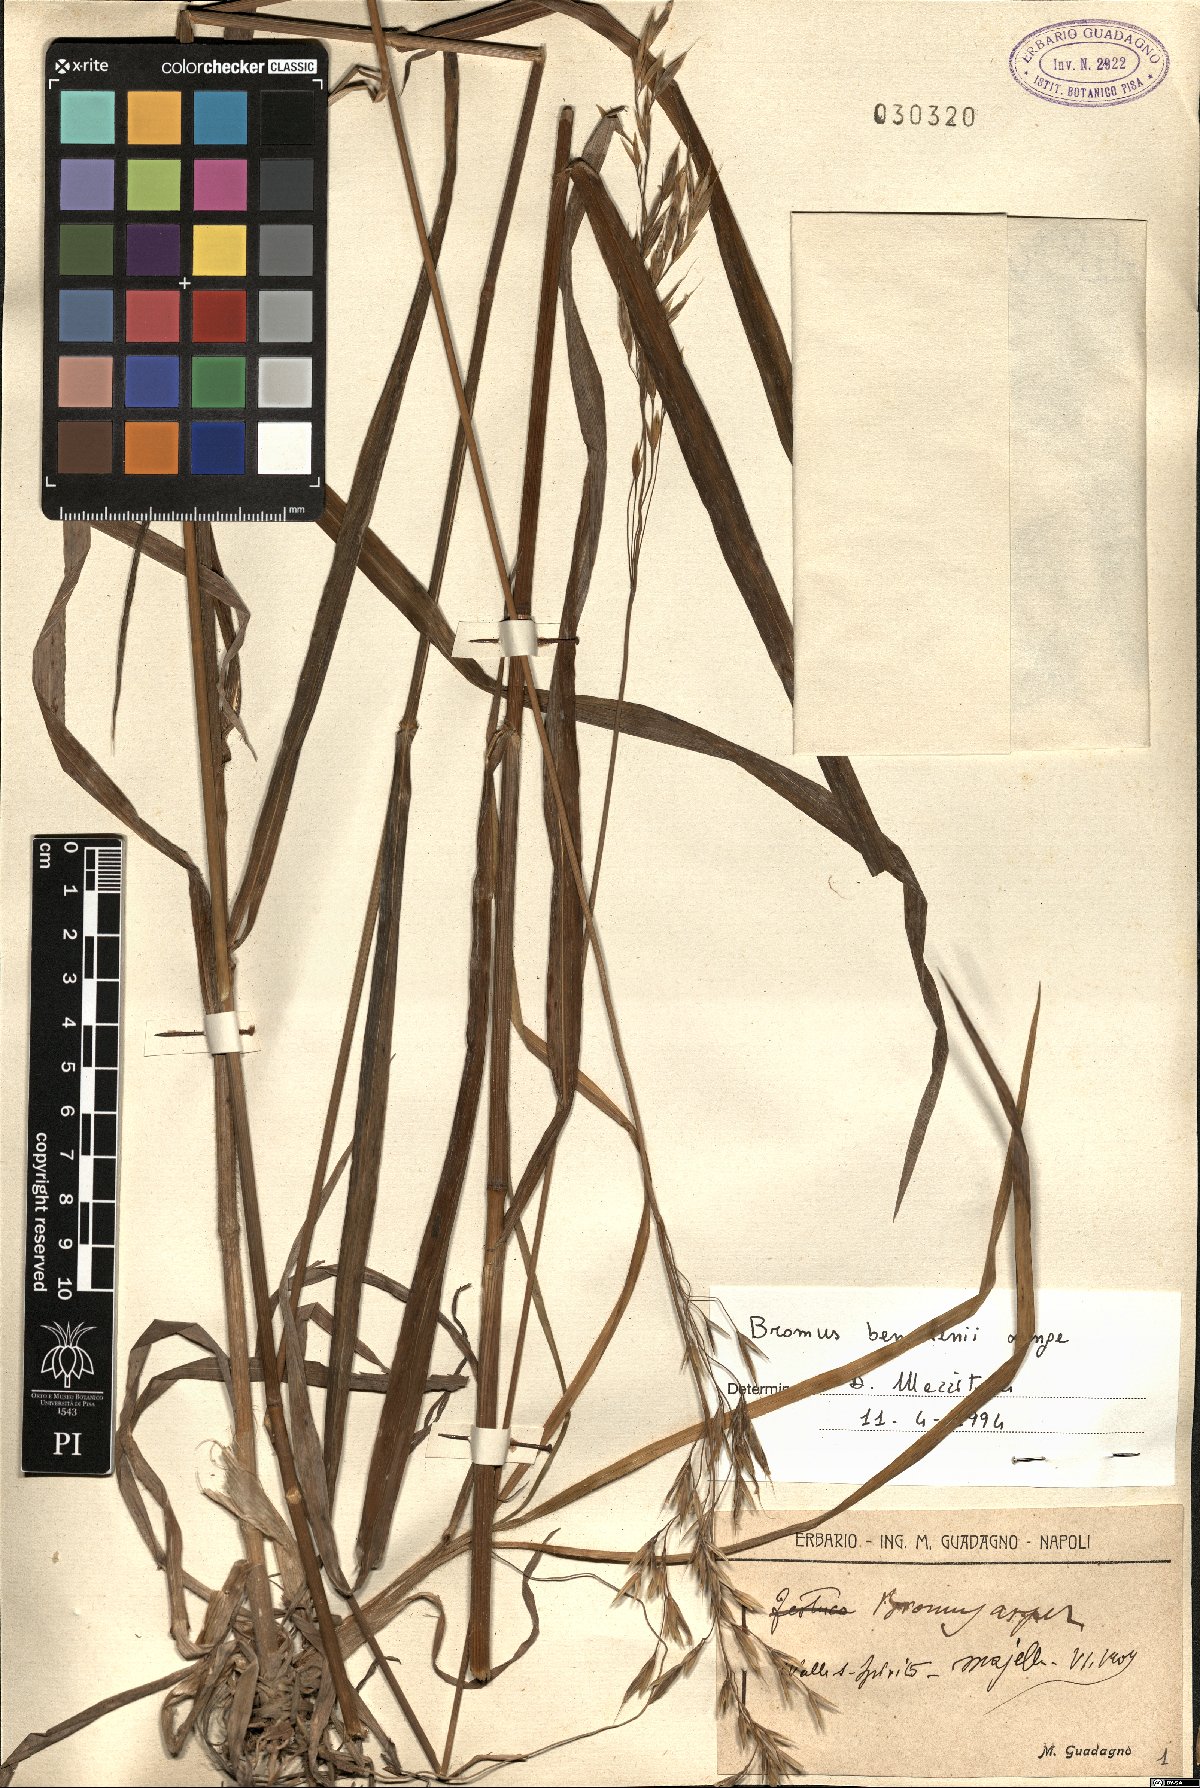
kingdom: Plantae
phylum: Tracheophyta
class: Liliopsida
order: Poales
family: Poaceae
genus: Bromus
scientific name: Bromus benekenii
